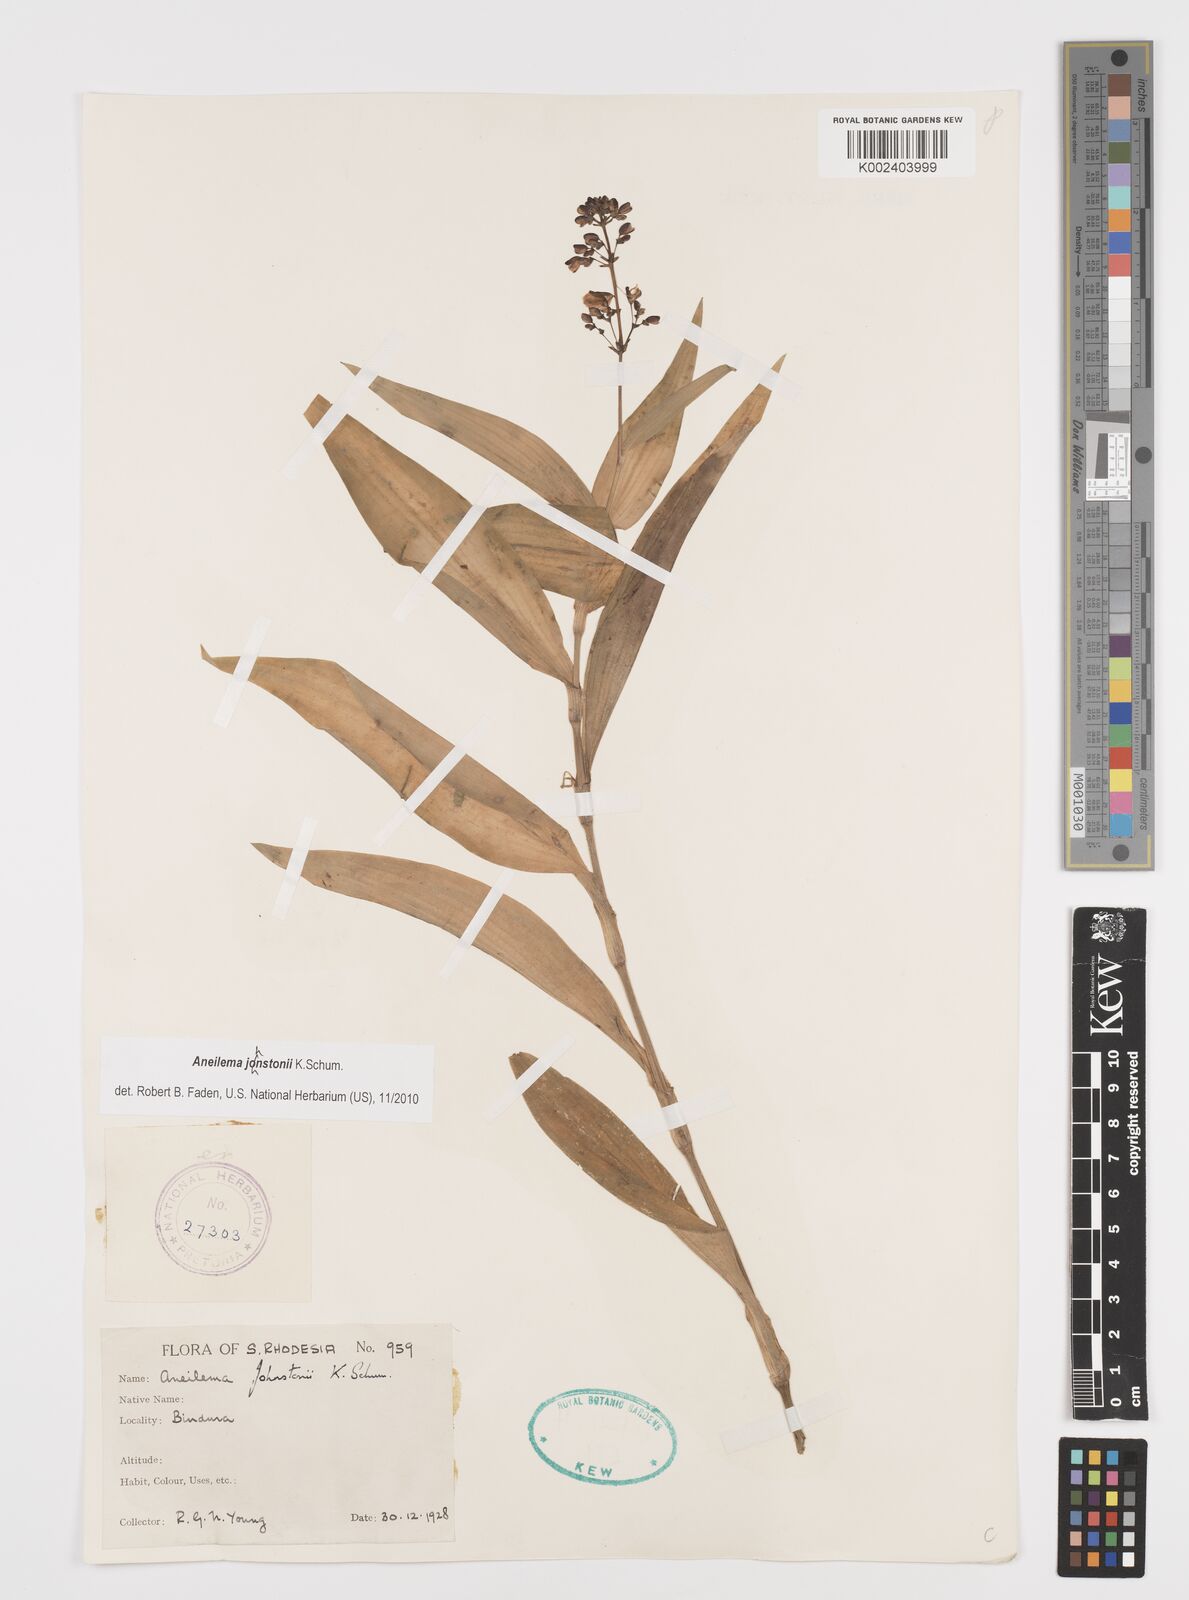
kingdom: Plantae
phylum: Tracheophyta
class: Liliopsida
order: Commelinales
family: Commelinaceae
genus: Aneilema
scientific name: Aneilema johnstonii
